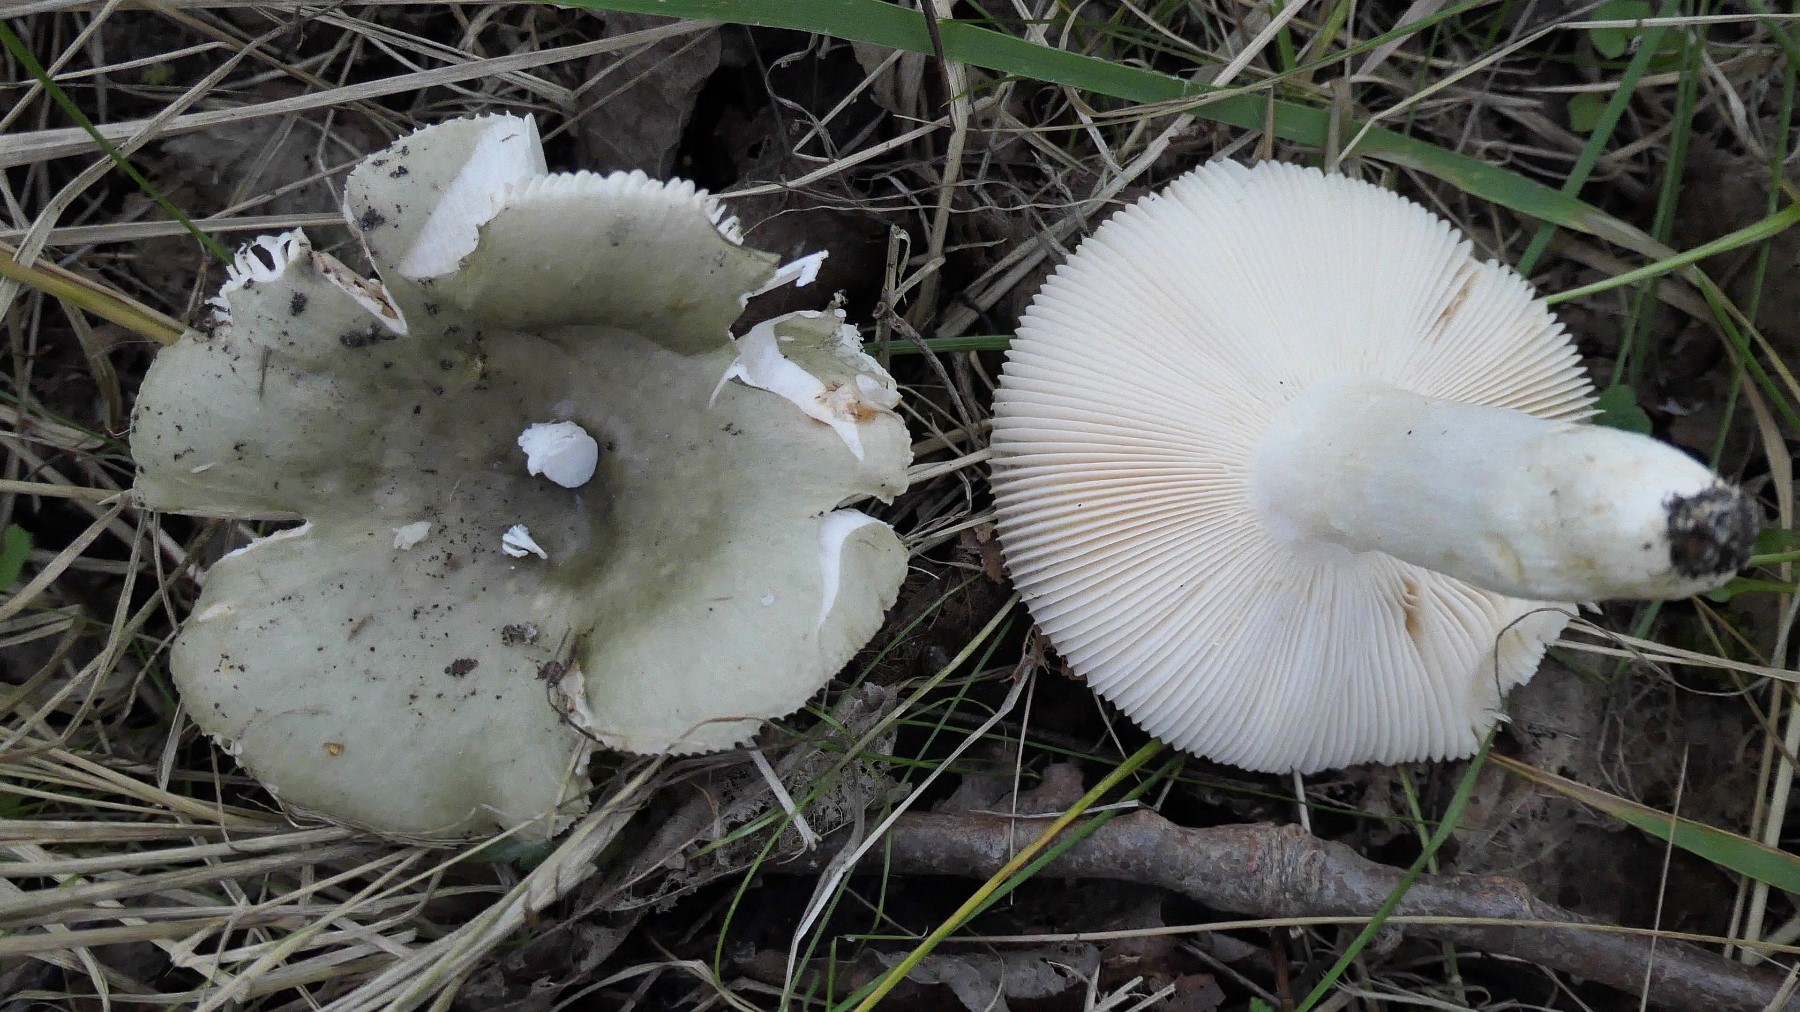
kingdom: Fungi
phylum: Basidiomycota
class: Agaricomycetes
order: Russulales
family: Russulaceae
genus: Russula
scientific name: Russula aeruginea
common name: græsgrøn skørhat
